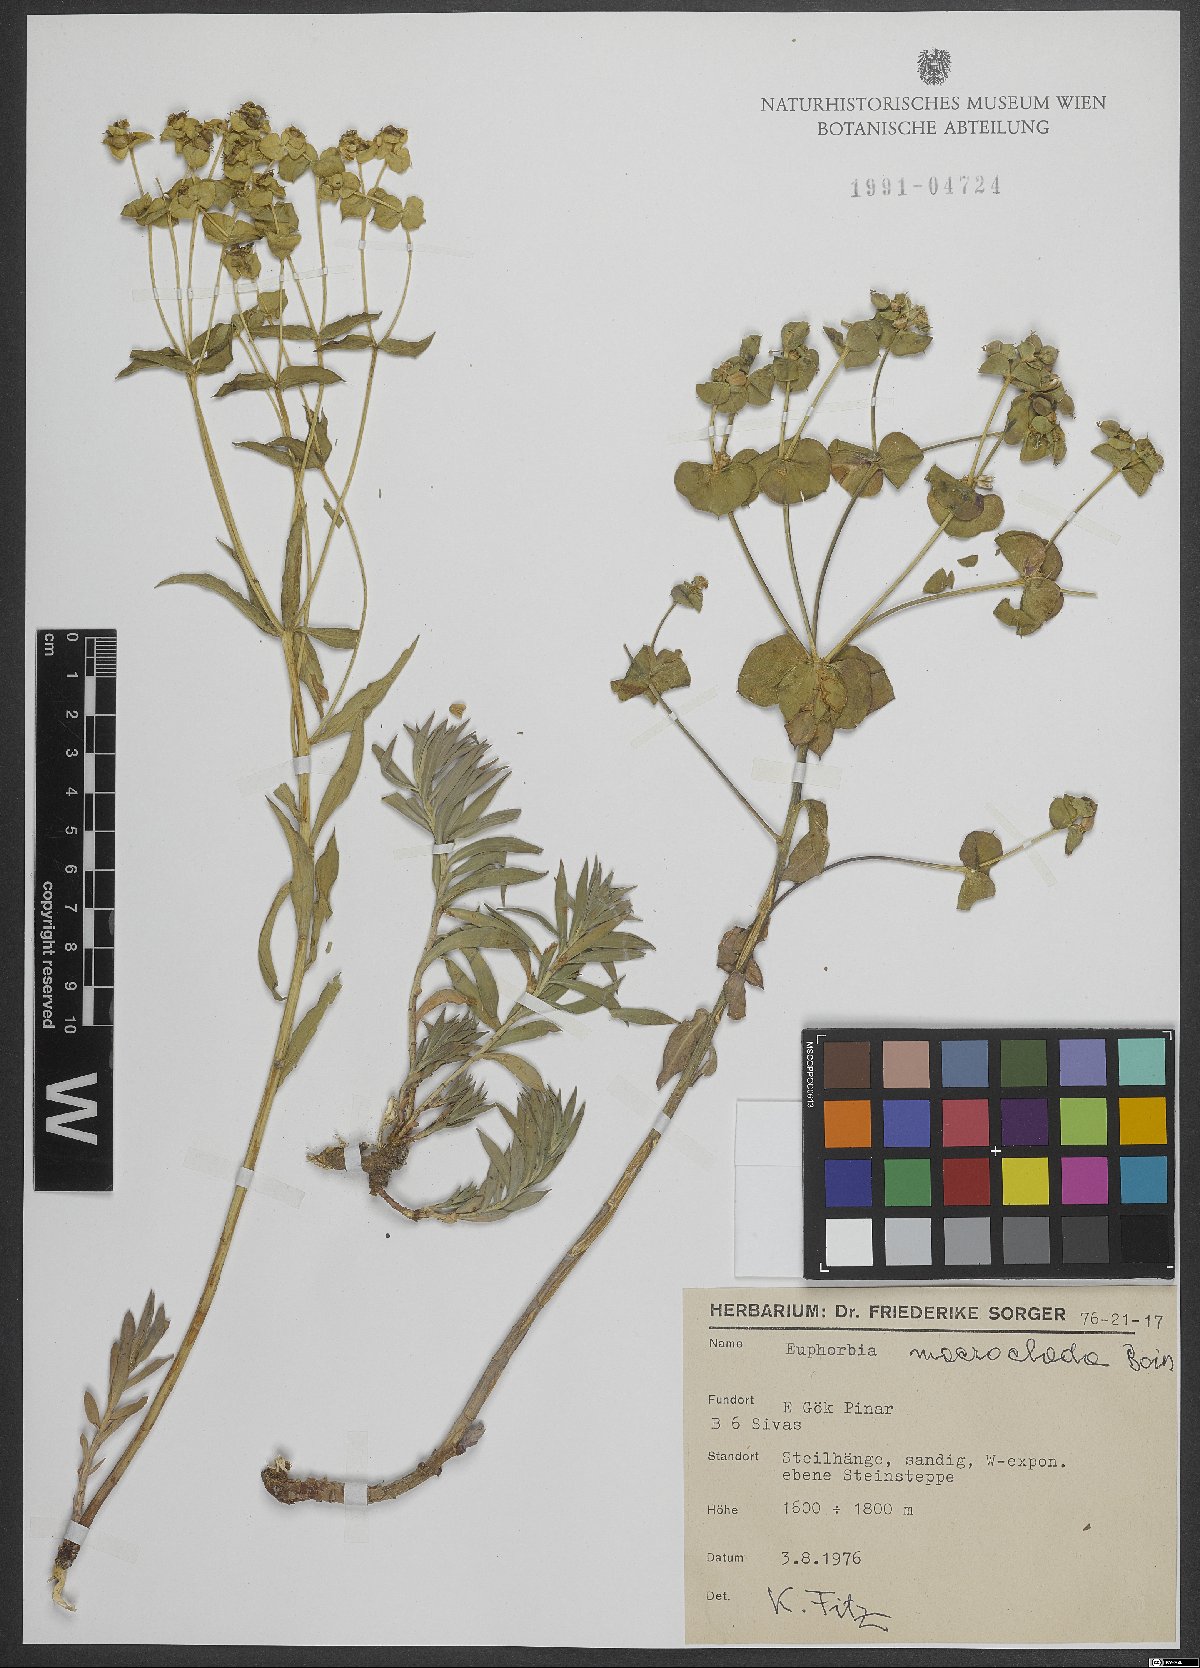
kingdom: Plantae
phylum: Tracheophyta
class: Magnoliopsida
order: Malpighiales
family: Euphorbiaceae
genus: Euphorbia
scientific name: Euphorbia macroclada
